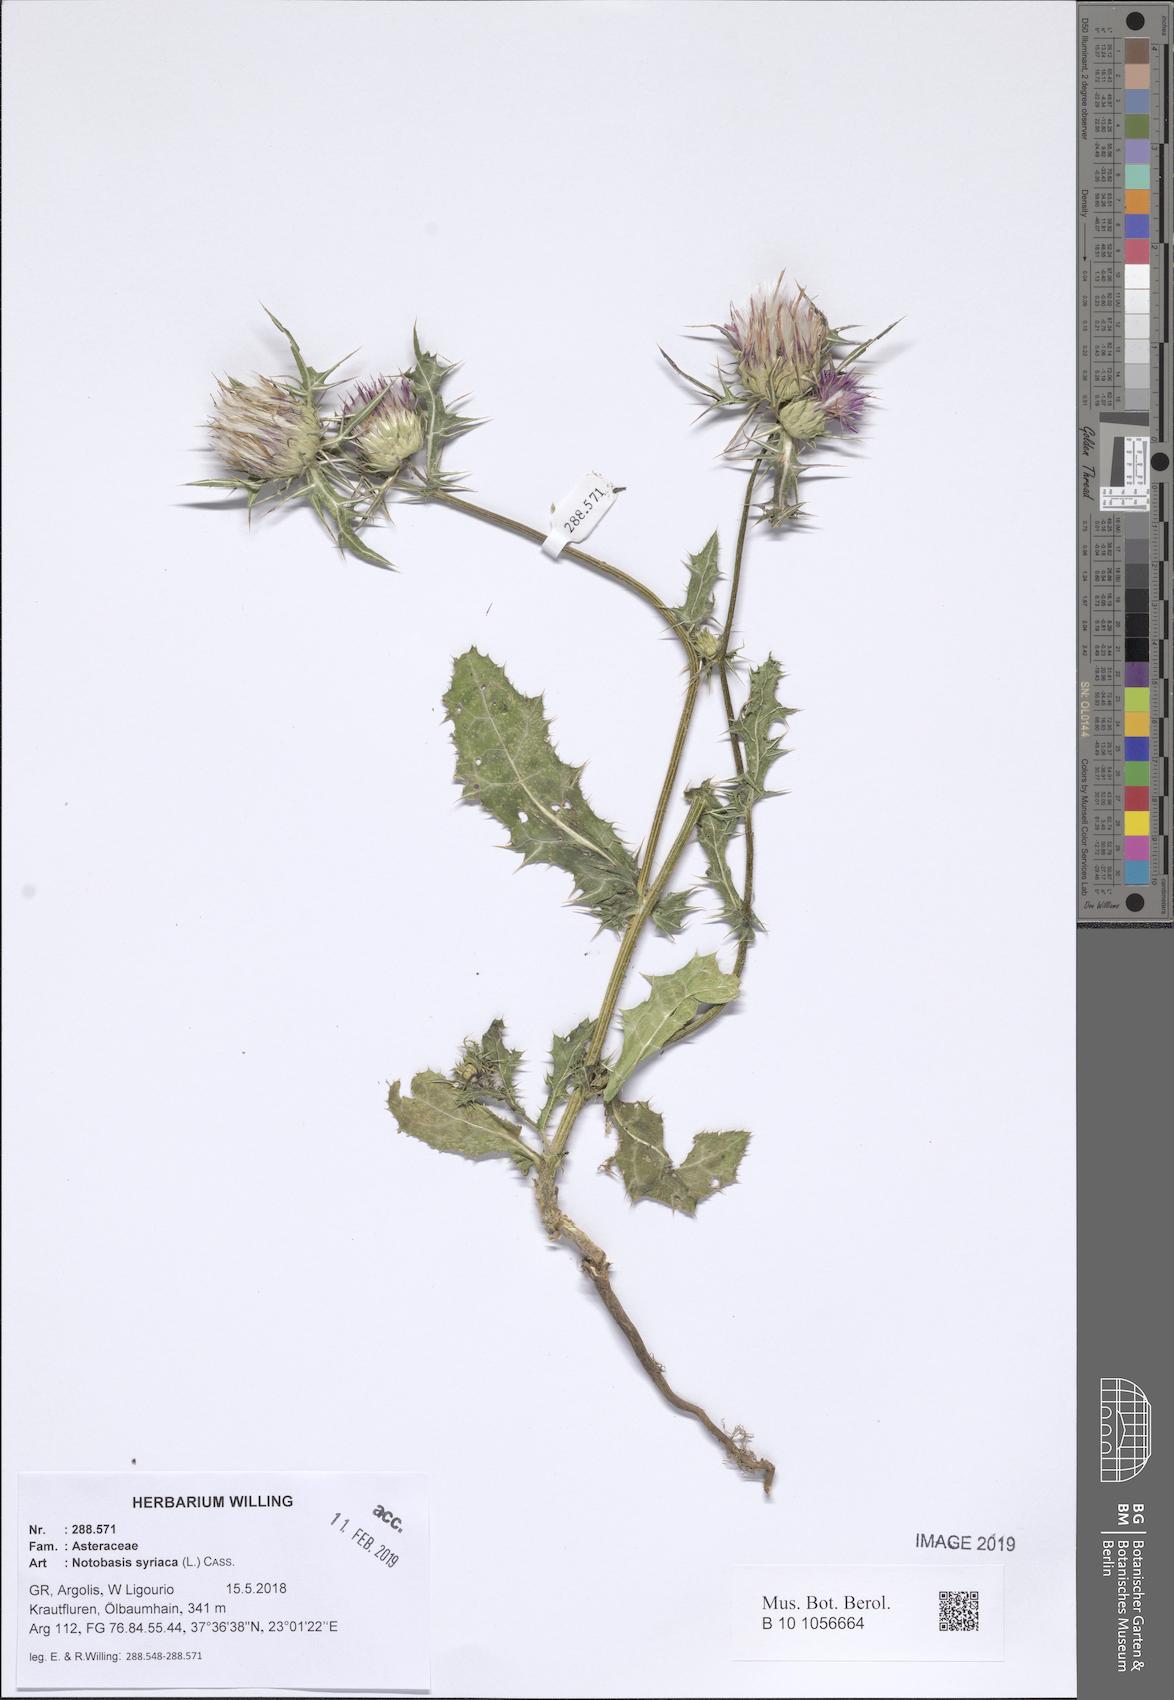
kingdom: Plantae
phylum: Tracheophyta
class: Magnoliopsida
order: Asterales
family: Asteraceae
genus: Notobasis
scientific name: Notobasis syriaca
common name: Syrian thistle
